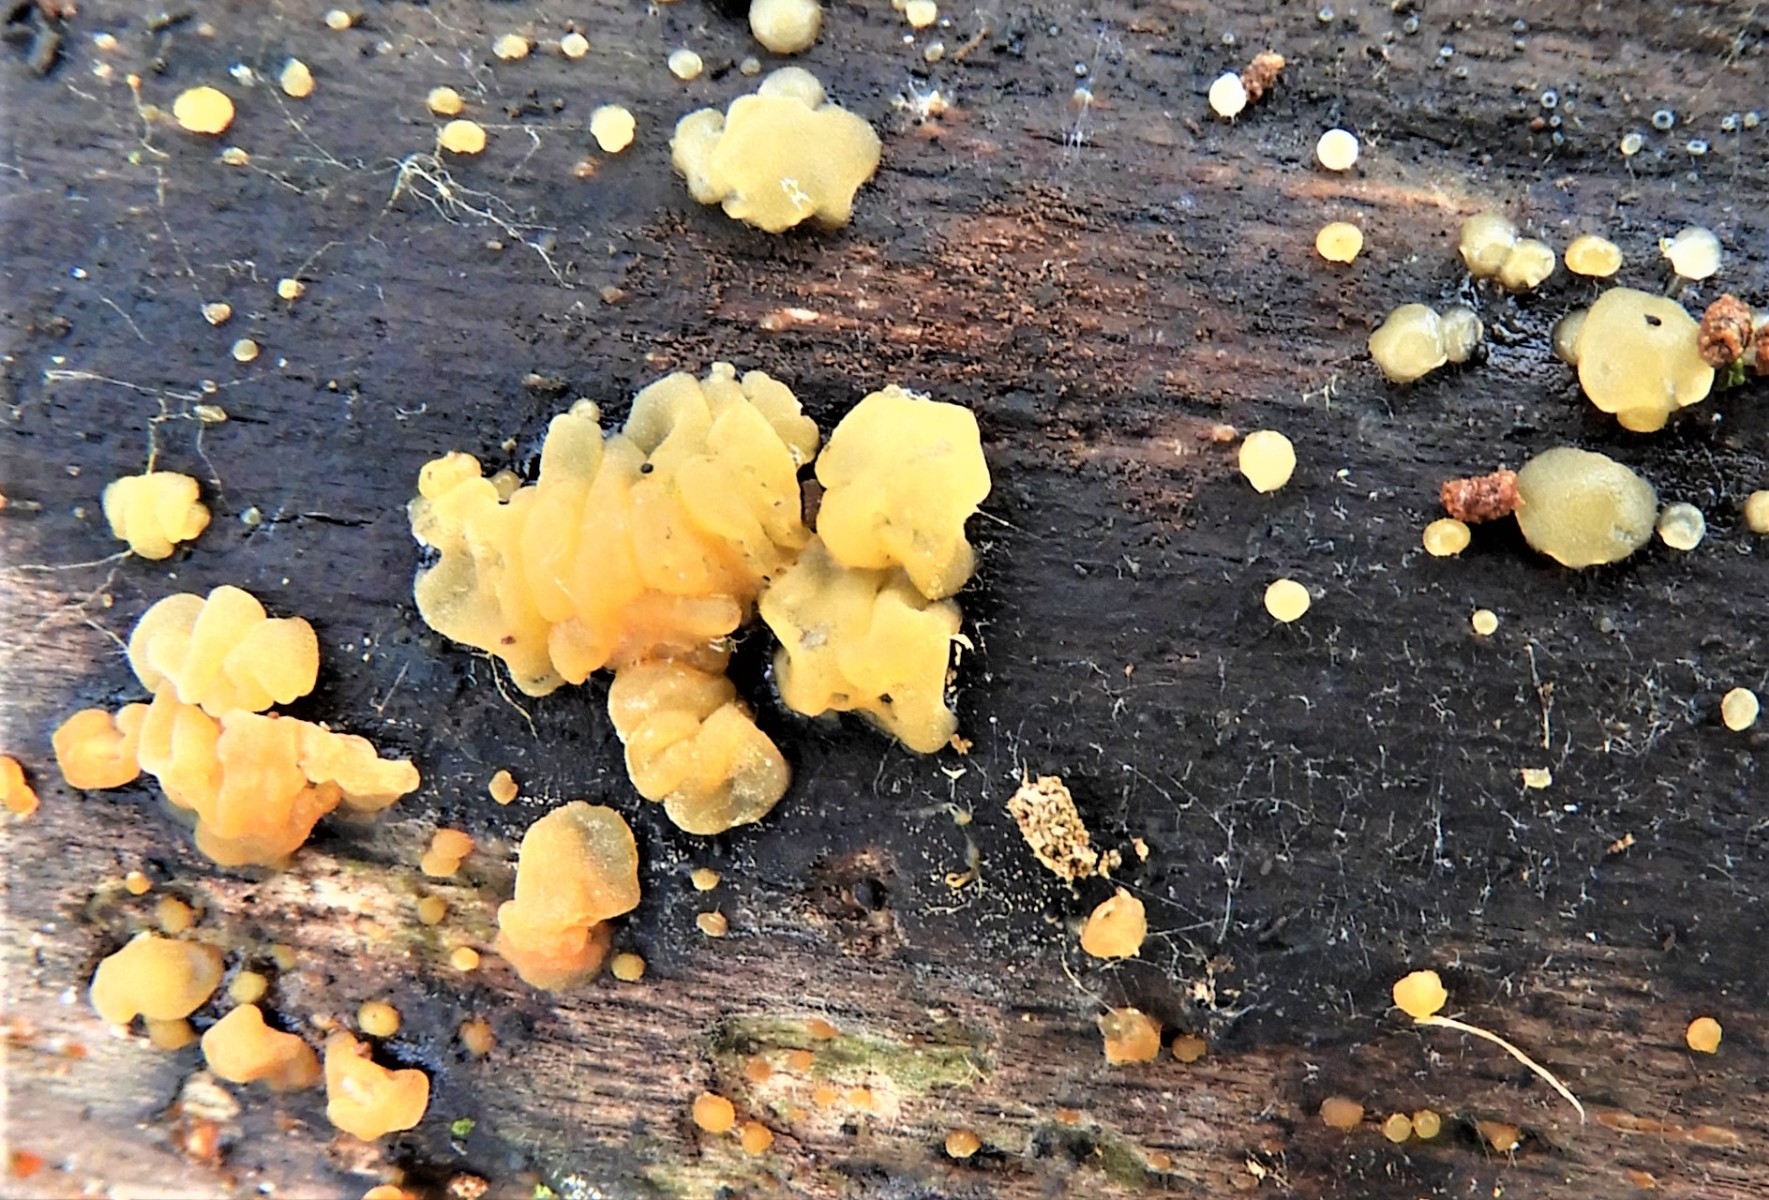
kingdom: Fungi
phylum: Basidiomycota
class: Dacrymycetes
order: Dacrymycetales
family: Dacrymycetaceae
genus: Dacrymyces
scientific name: Dacrymyces
